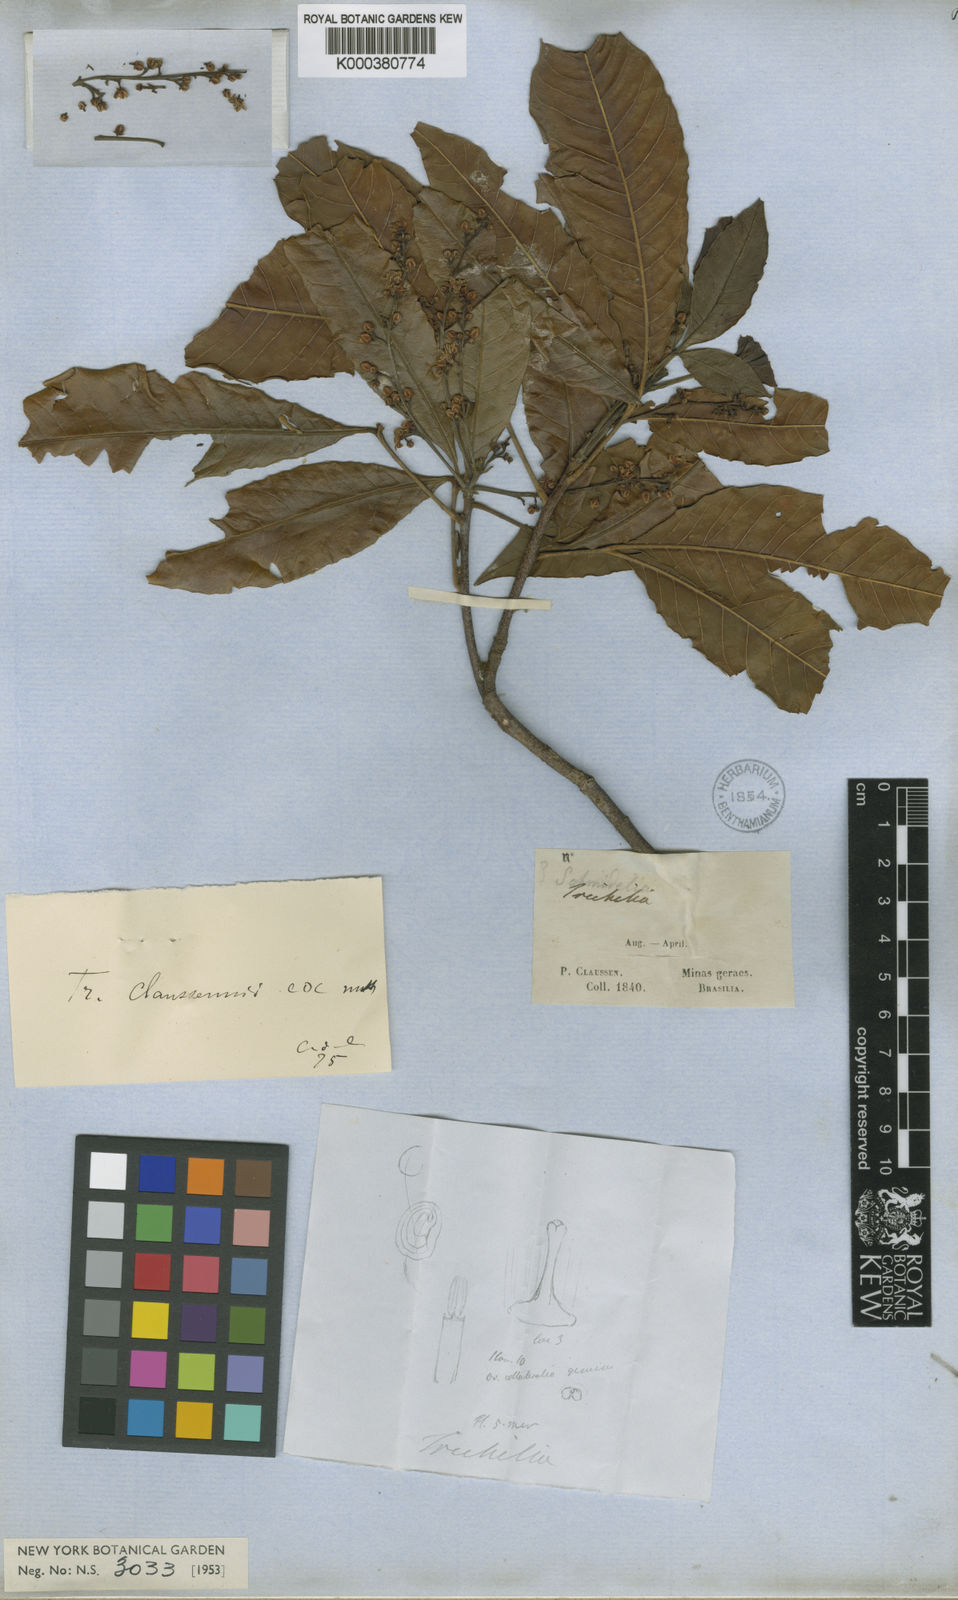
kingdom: Plantae
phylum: Tracheophyta
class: Magnoliopsida
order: Sapindales
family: Meliaceae
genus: Trichilia
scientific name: Trichilia claussenii
